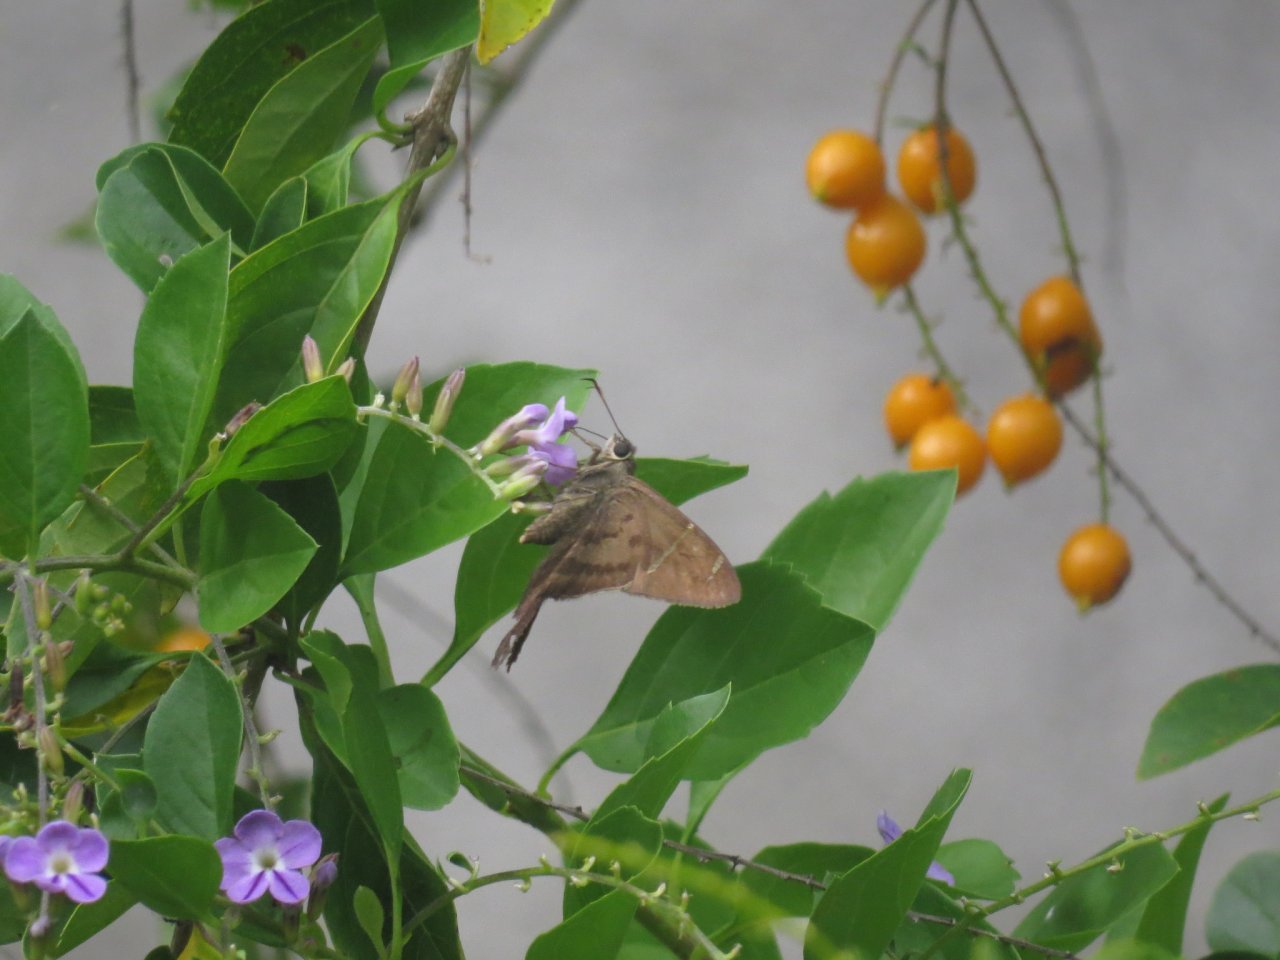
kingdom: Animalia
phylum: Arthropoda
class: Insecta
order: Lepidoptera
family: Hesperiidae
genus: Urbanus
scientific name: Urbanus teleus
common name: Teleus Longtail
